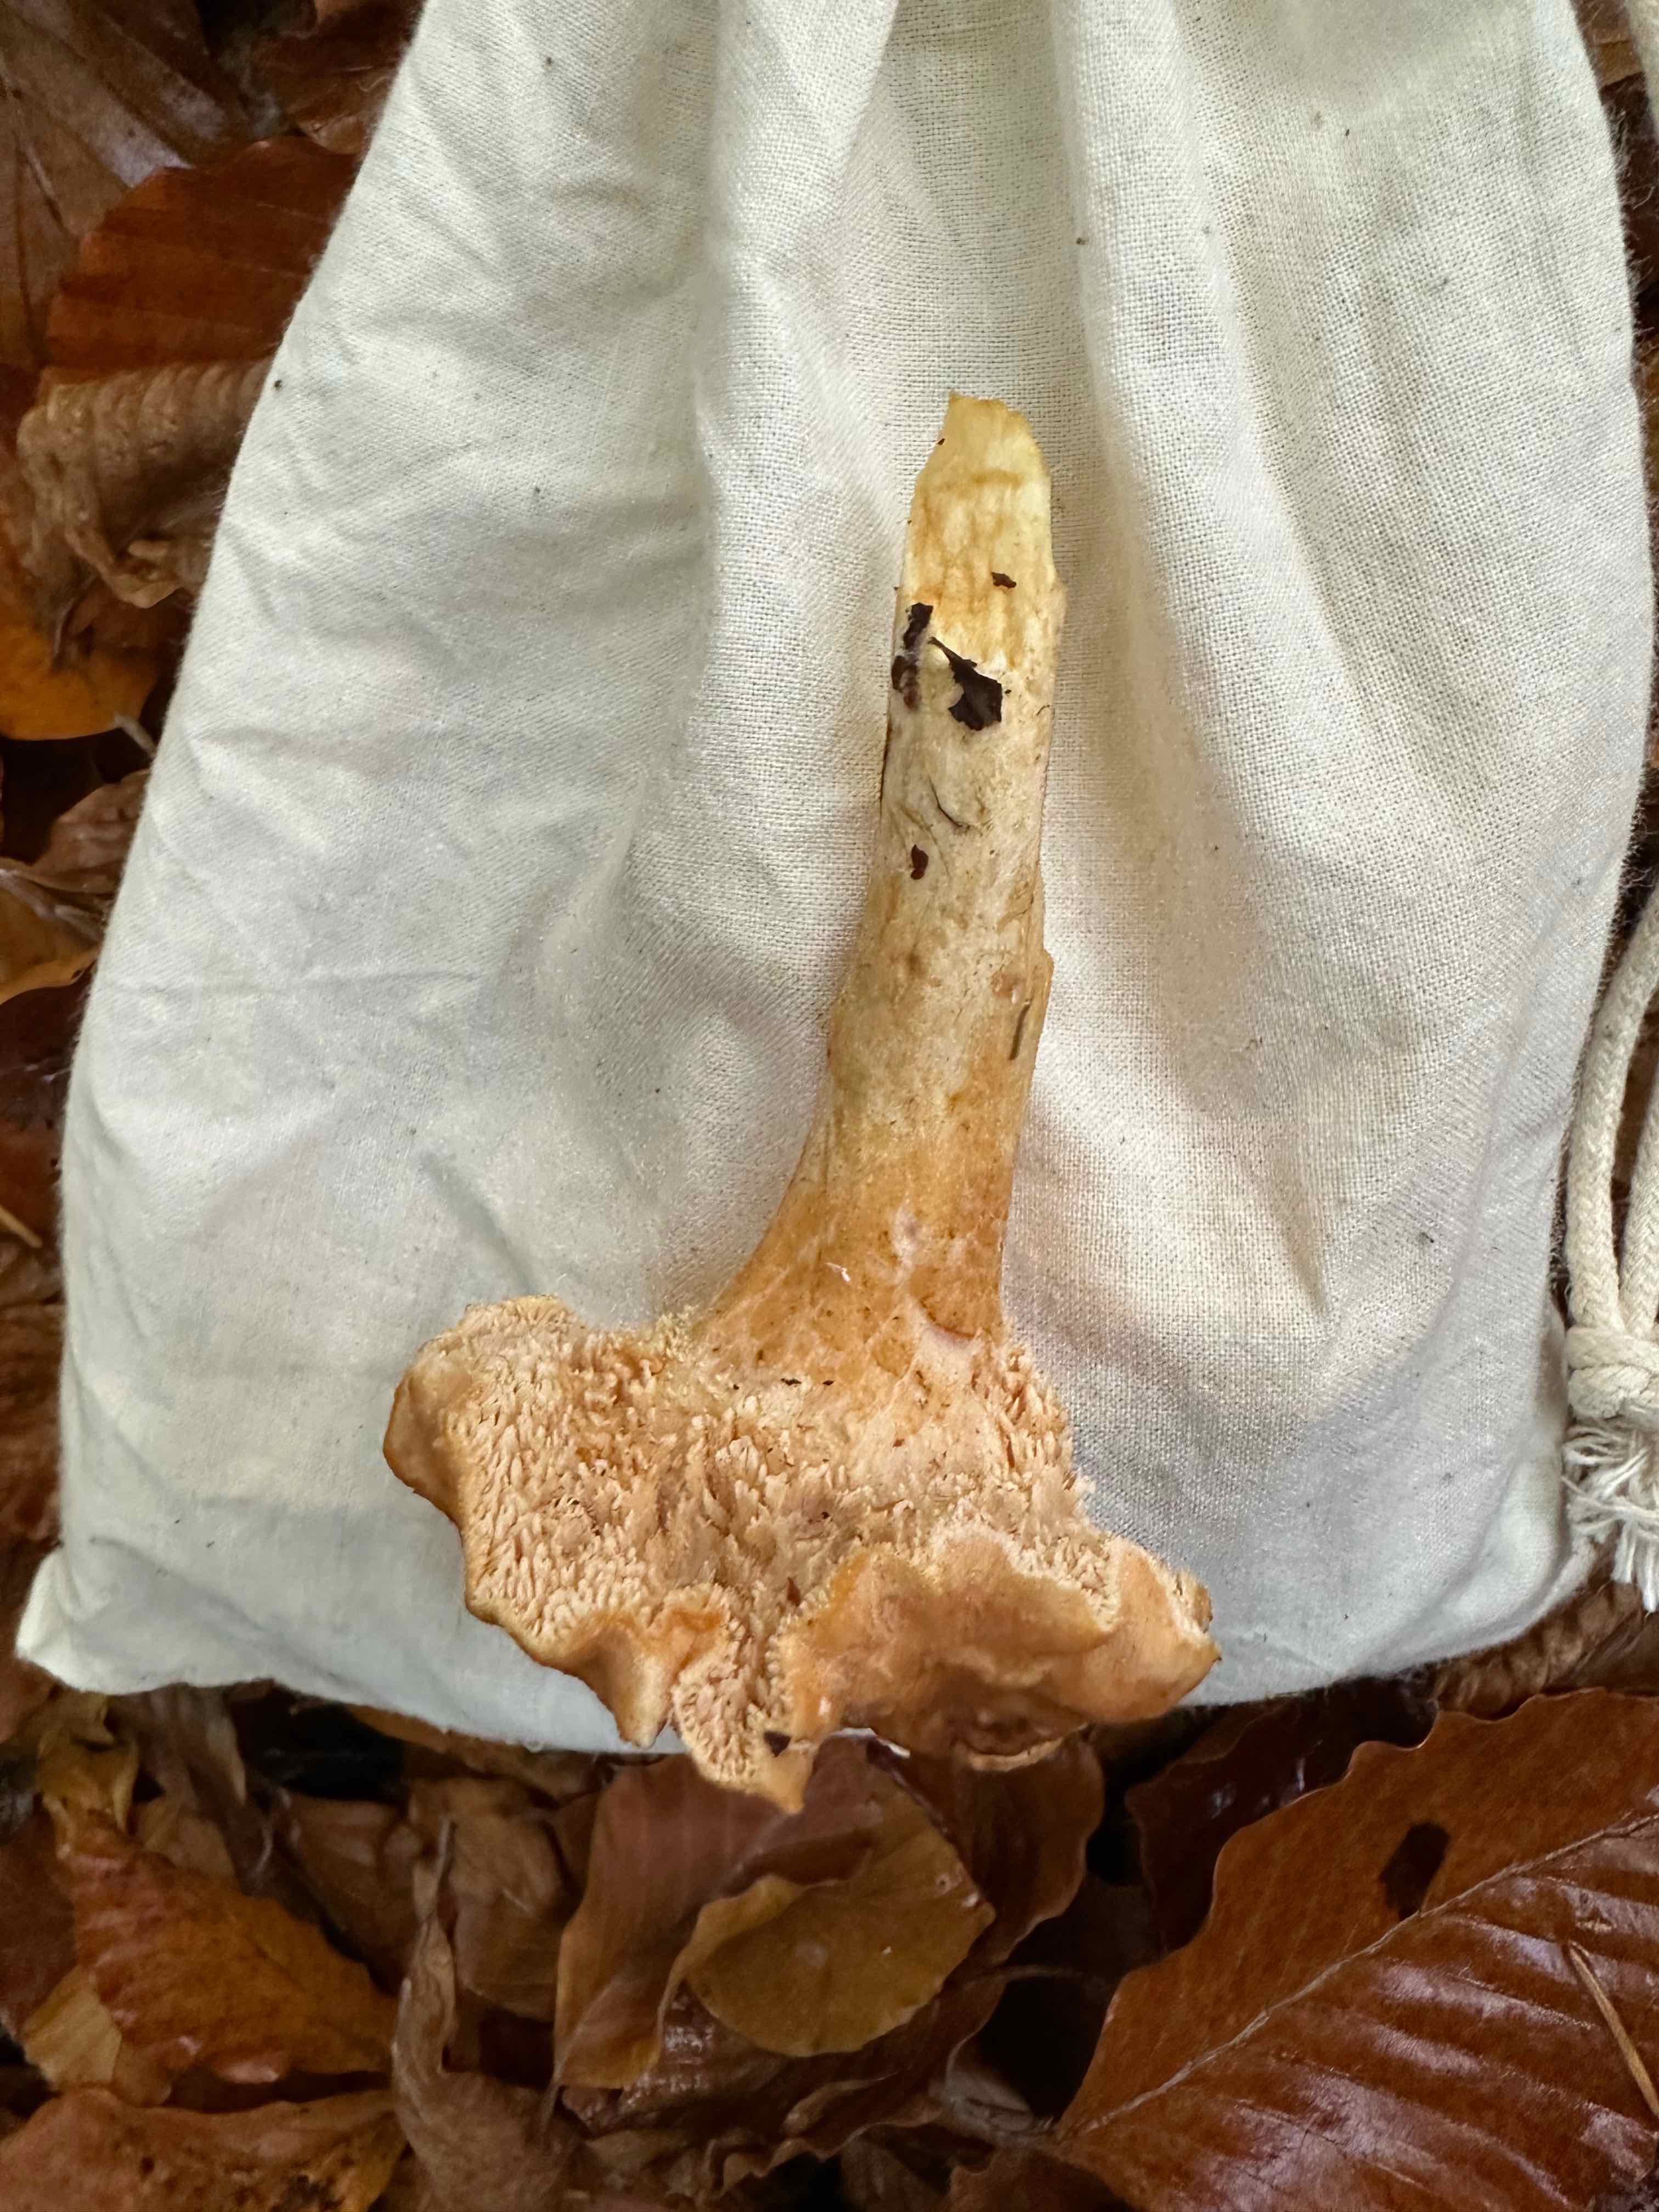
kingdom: Fungi
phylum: Basidiomycota
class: Agaricomycetes
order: Cantharellales
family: Hydnaceae
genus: Hydnum
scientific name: Hydnum
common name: pigsvamp
